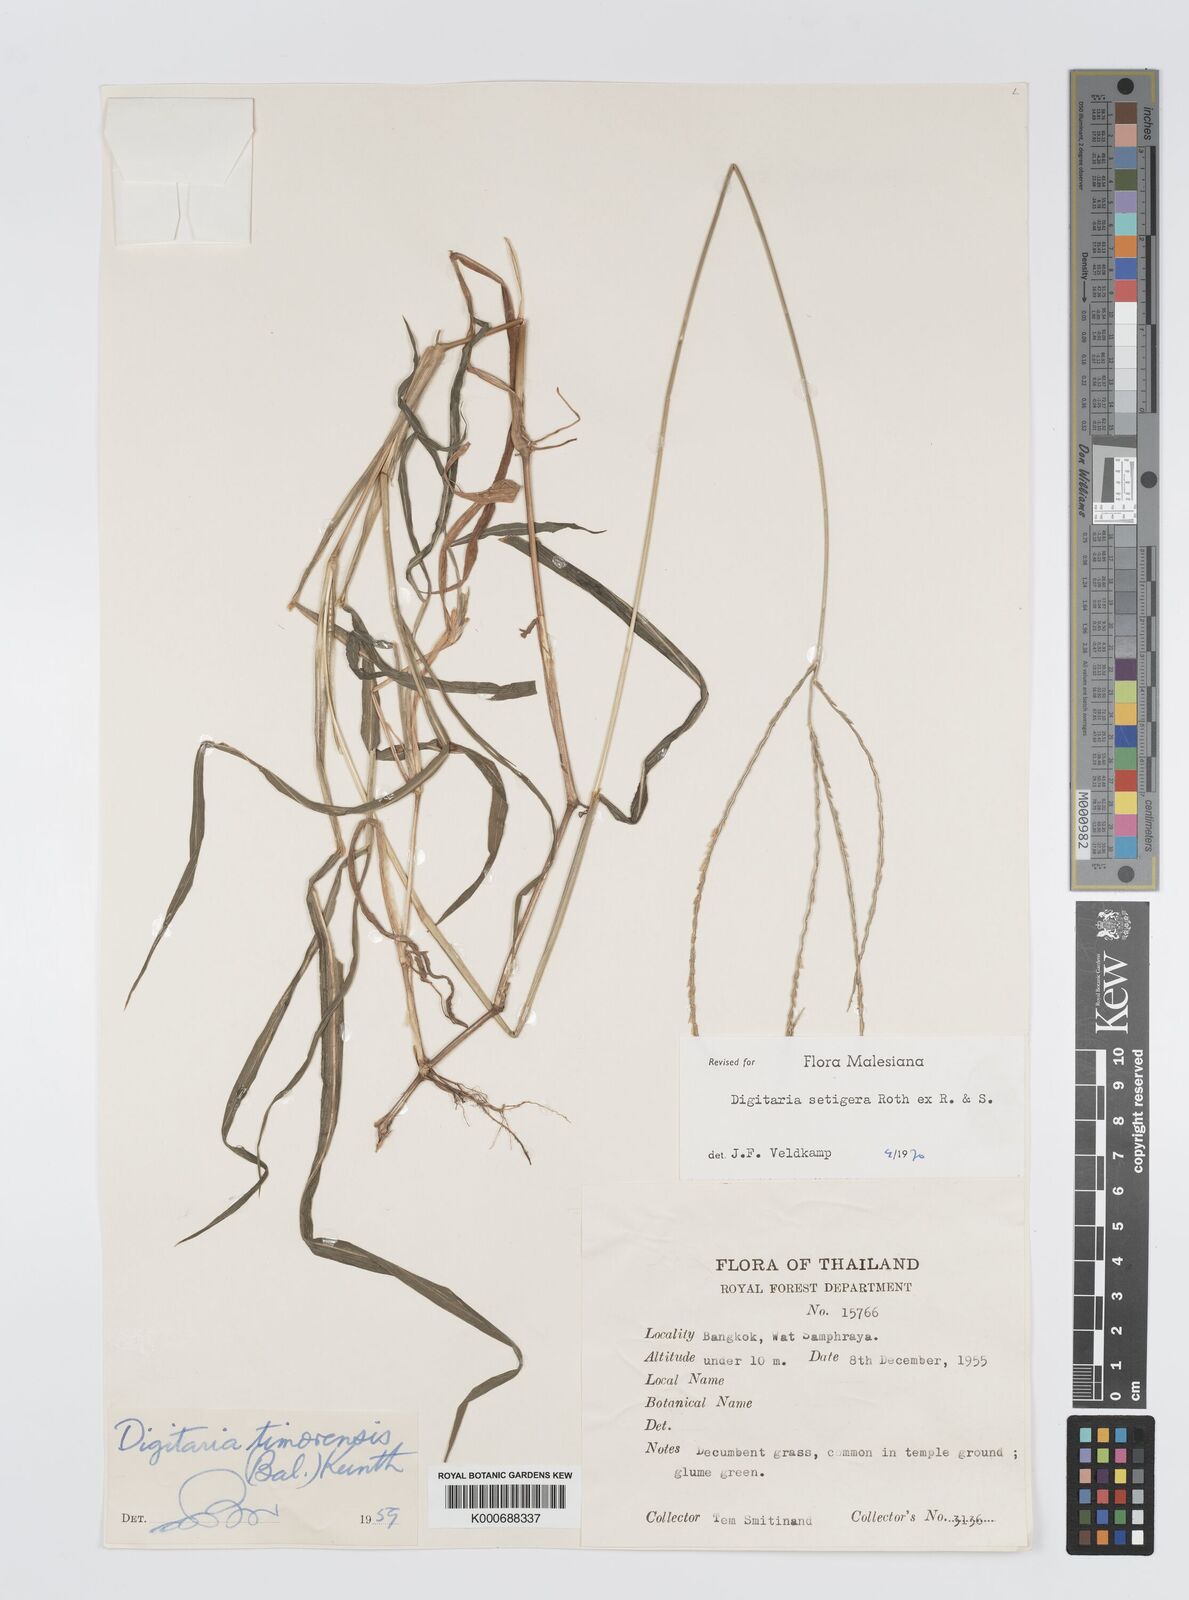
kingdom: Plantae
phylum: Tracheophyta
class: Liliopsida
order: Poales
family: Poaceae
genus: Digitaria
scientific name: Digitaria
